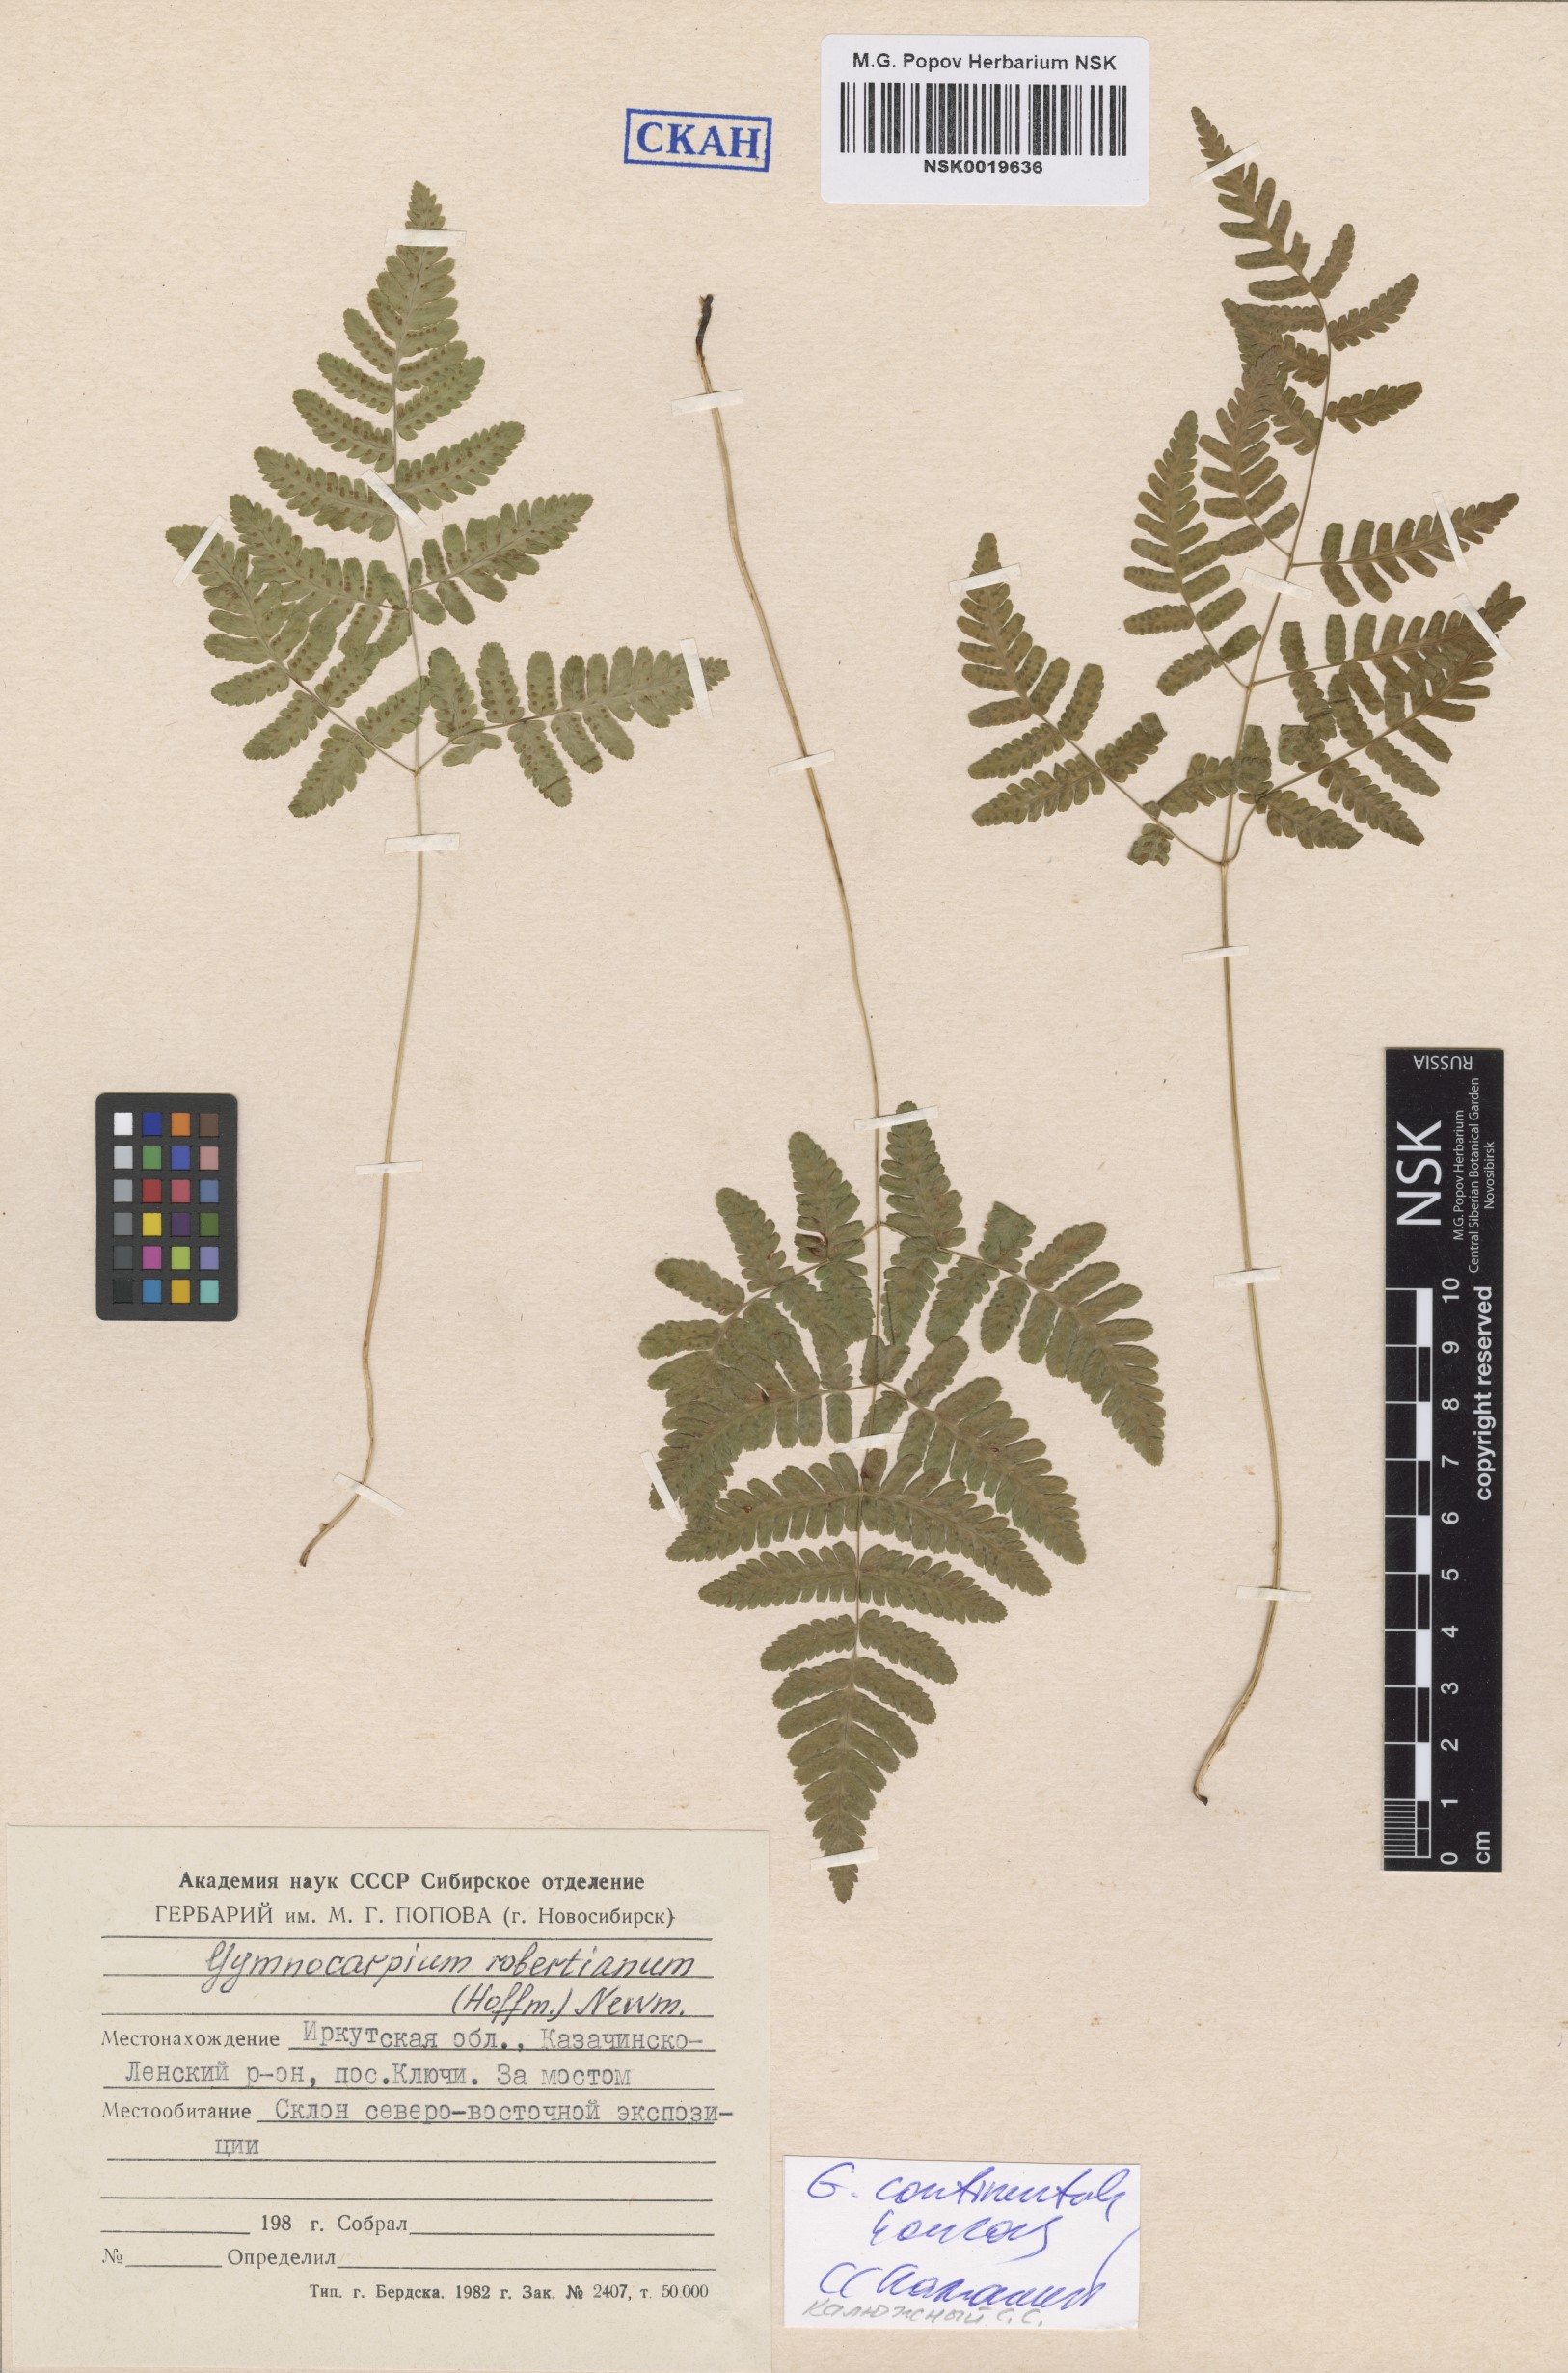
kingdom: Plantae
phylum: Tracheophyta
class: Polypodiopsida
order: Polypodiales
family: Cystopteridaceae
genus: Gymnocarpium
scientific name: Gymnocarpium continentale
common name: Asian oak fern
